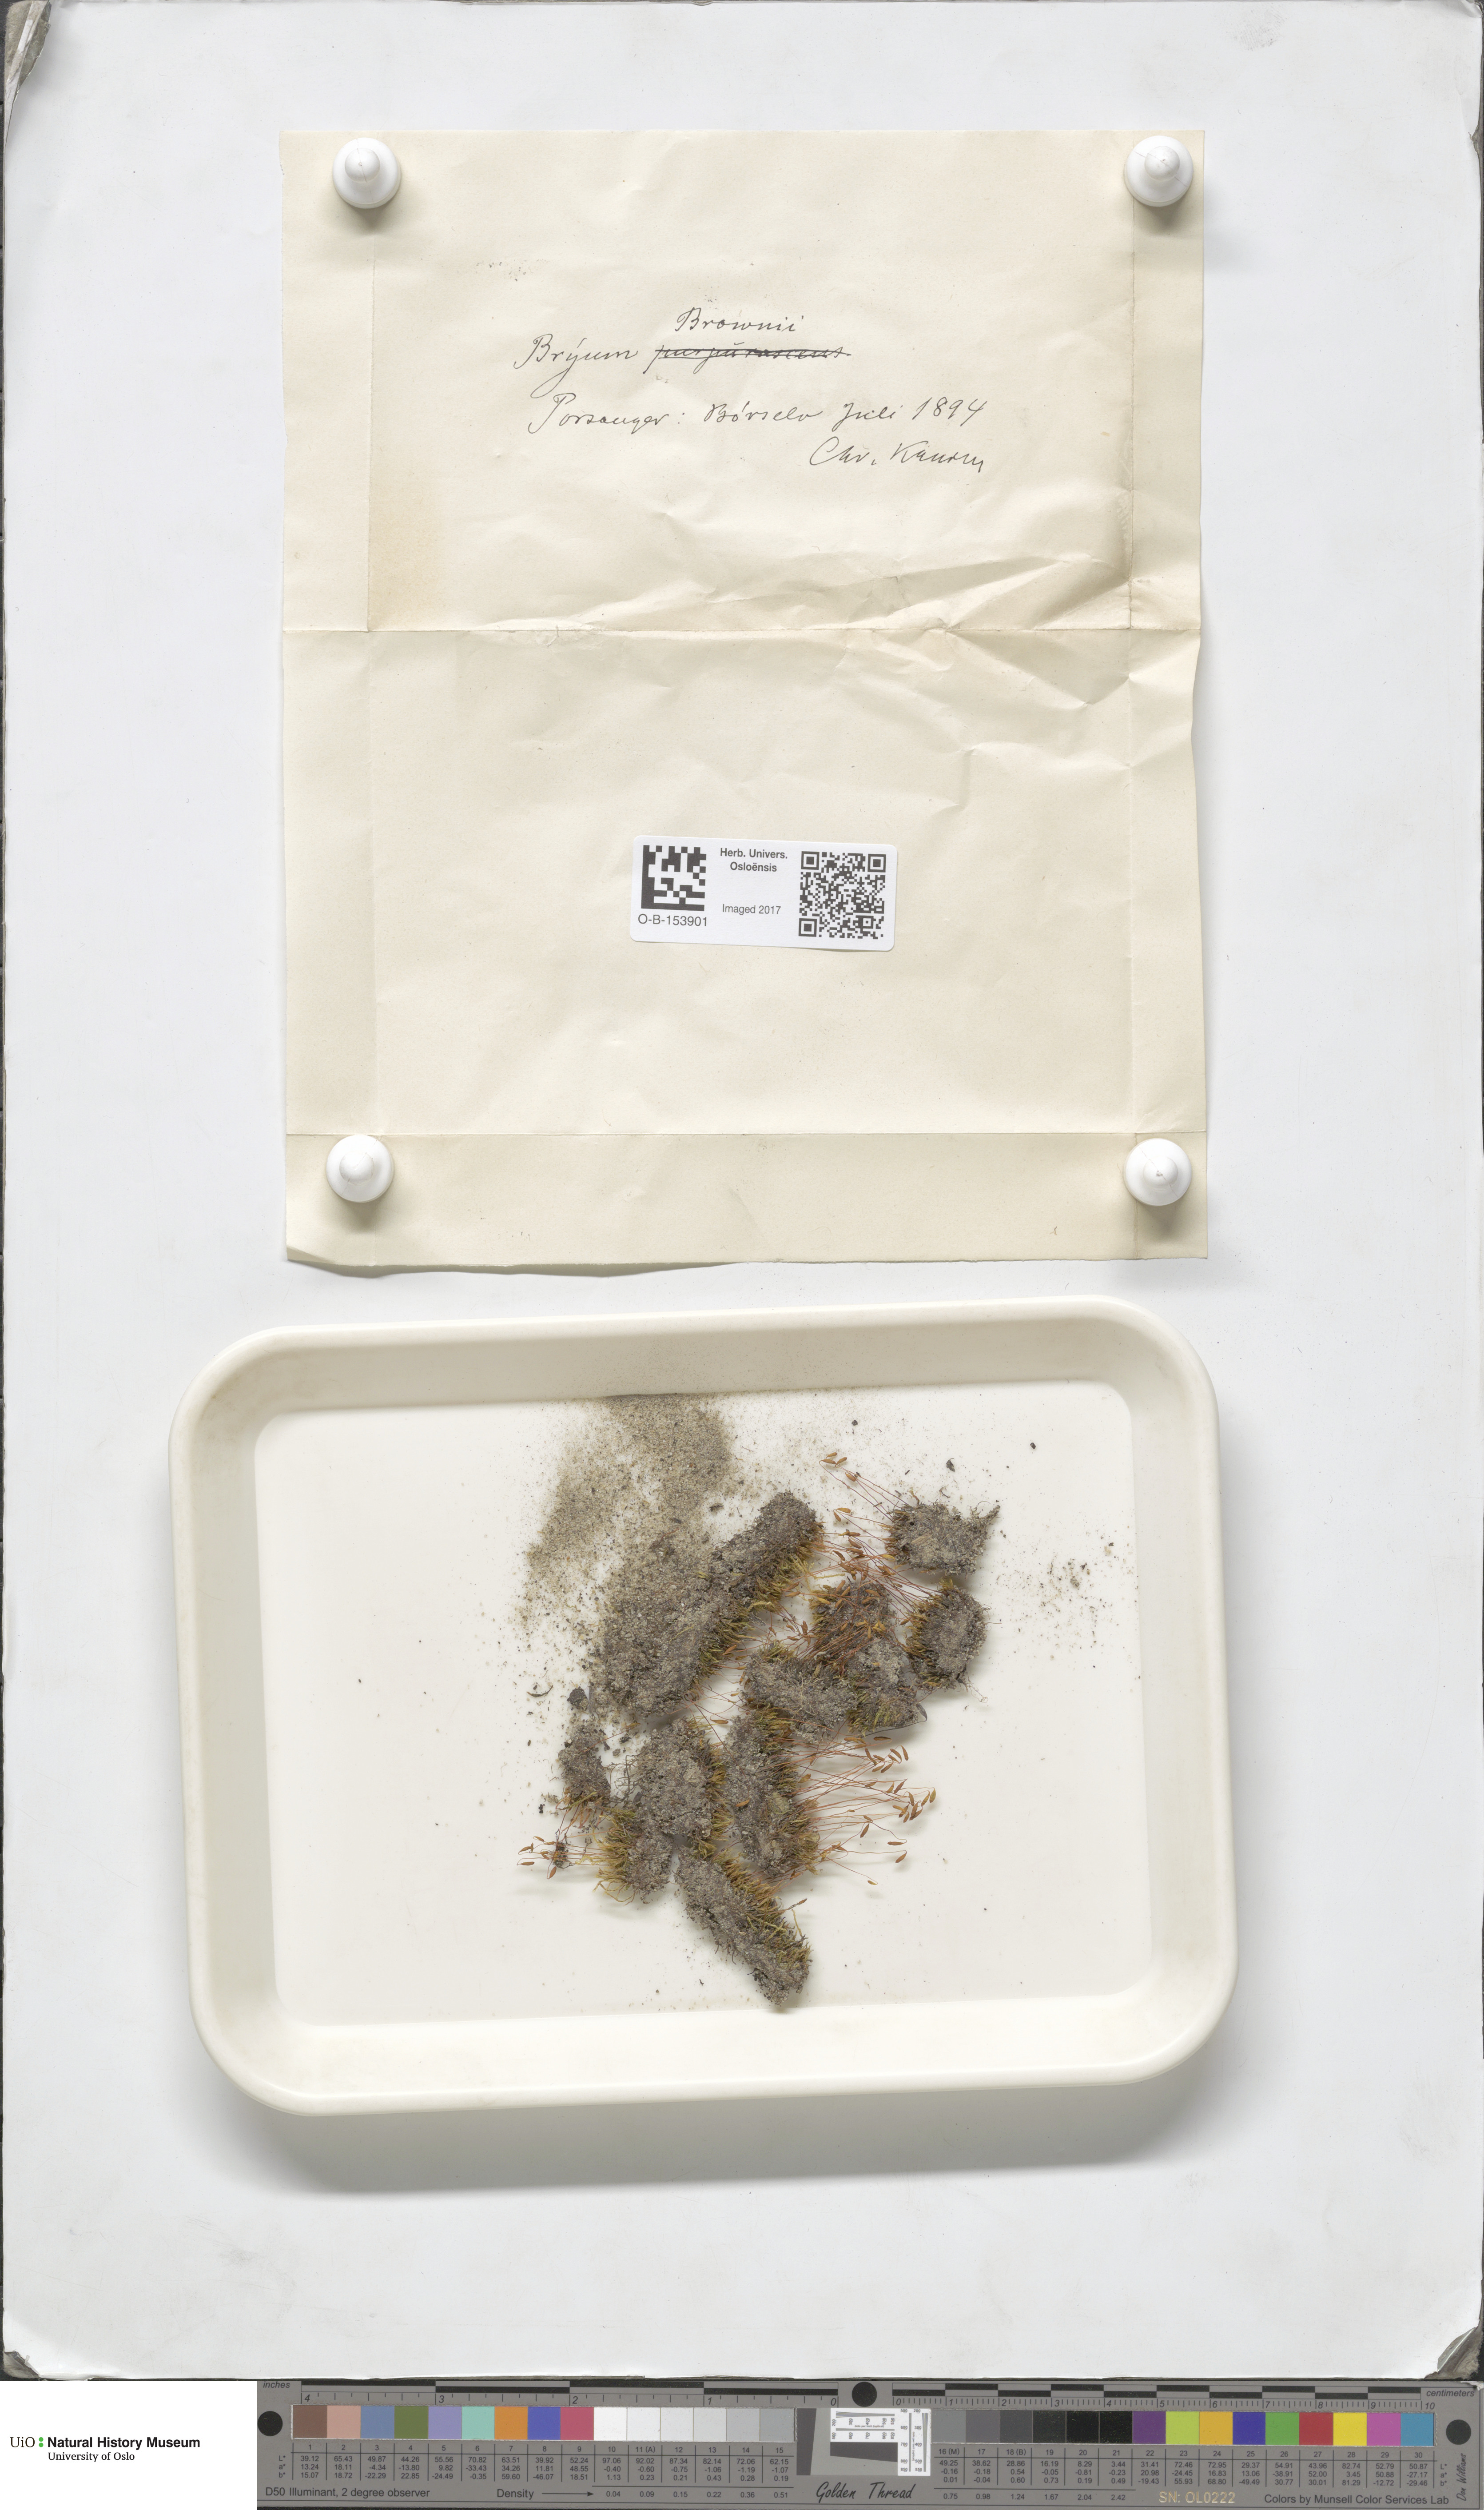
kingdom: Plantae
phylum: Bryophyta
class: Bryopsida
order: Bryales
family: Bryaceae
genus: Ptychostomum
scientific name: Ptychostomum arcticum
